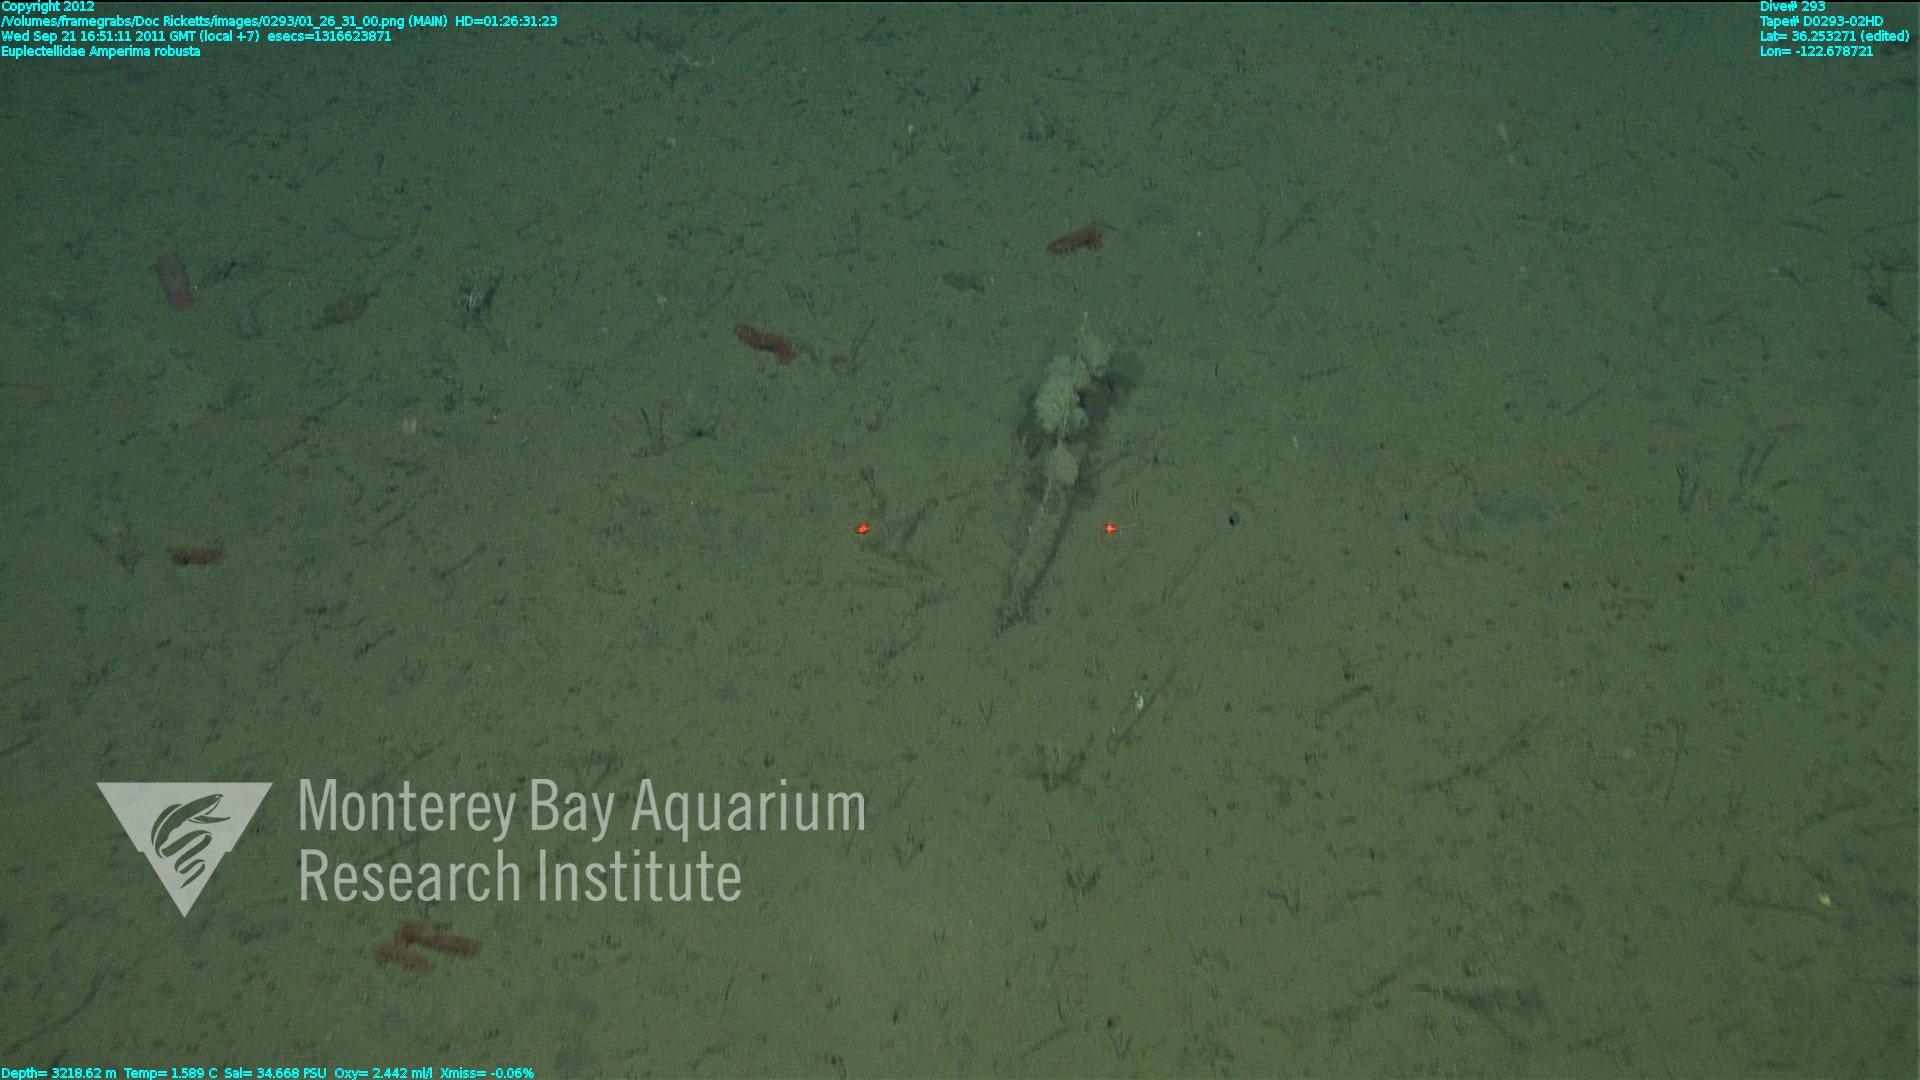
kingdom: Animalia
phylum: Porifera
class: Hexactinellida
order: Lyssacinosida
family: Euplectellidae
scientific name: Euplectellidae
